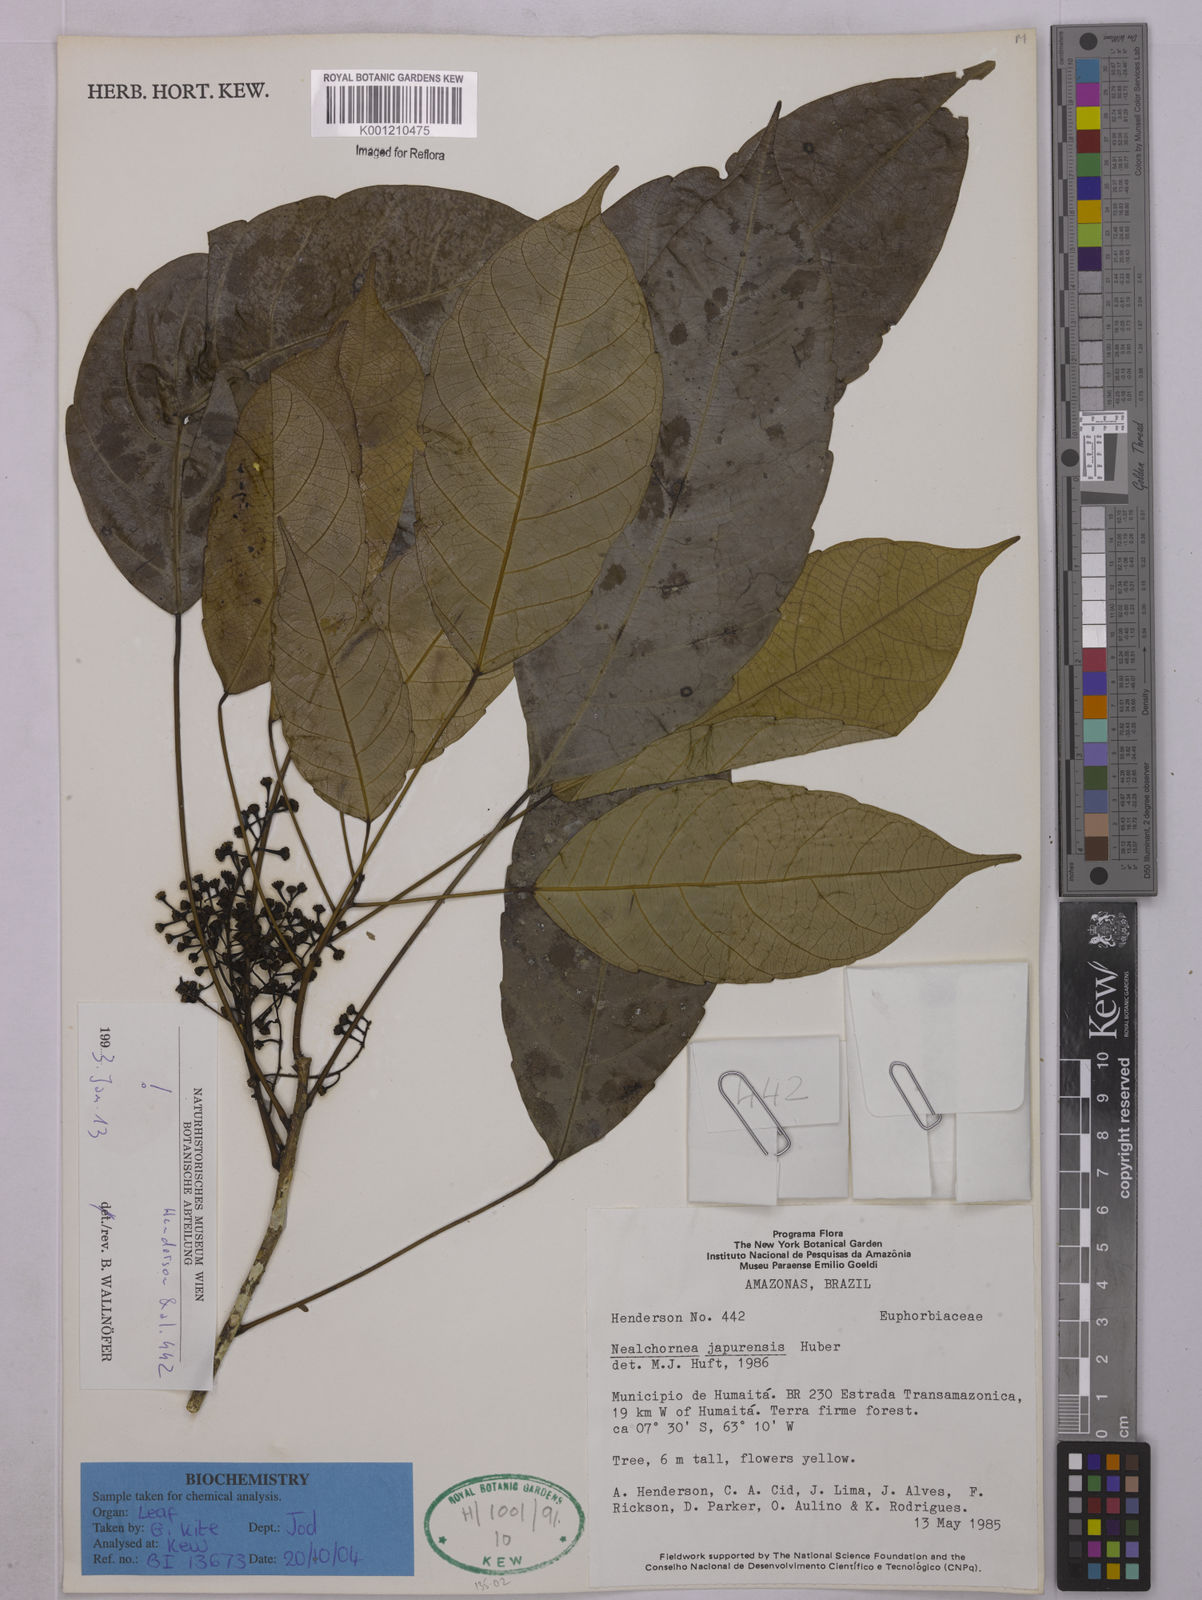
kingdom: Plantae
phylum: Tracheophyta
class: Magnoliopsida
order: Malpighiales
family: Euphorbiaceae
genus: Nealchornea
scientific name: Nealchornea yapurensis
